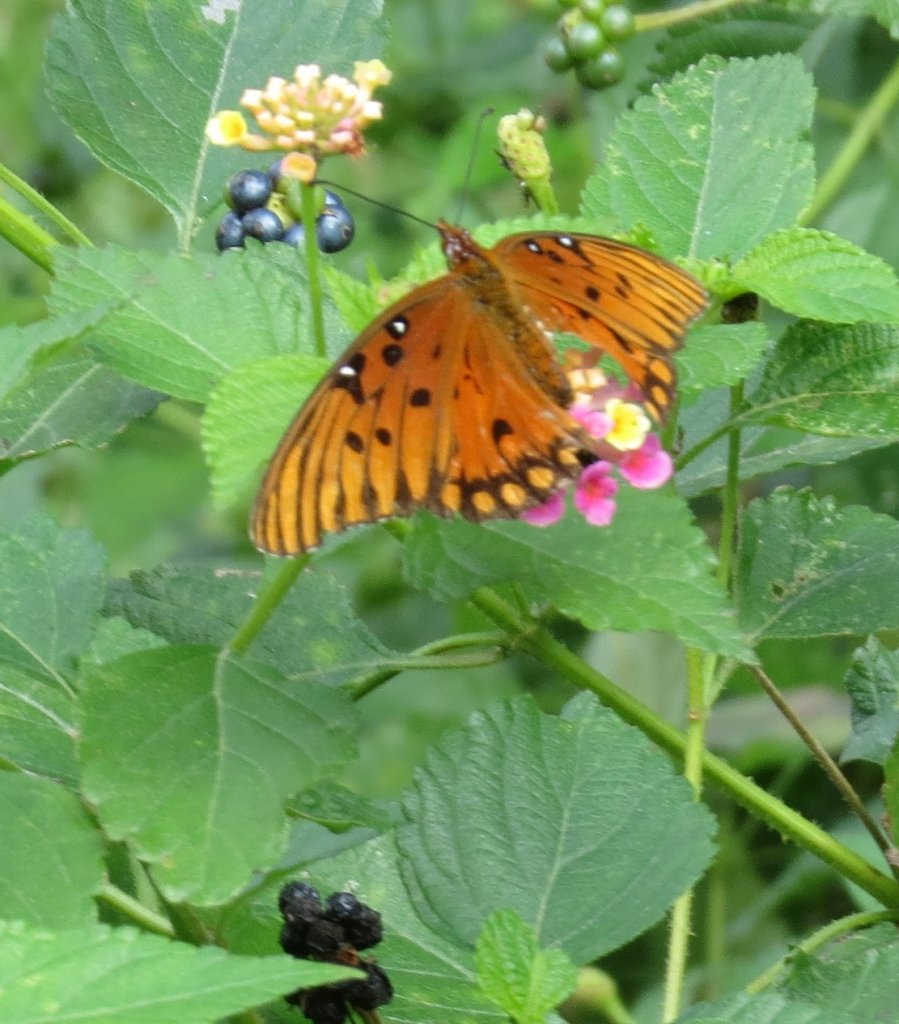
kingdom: Animalia
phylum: Arthropoda
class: Insecta
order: Lepidoptera
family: Nymphalidae
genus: Dione
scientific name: Dione vanillae
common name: Gulf Fritillary
